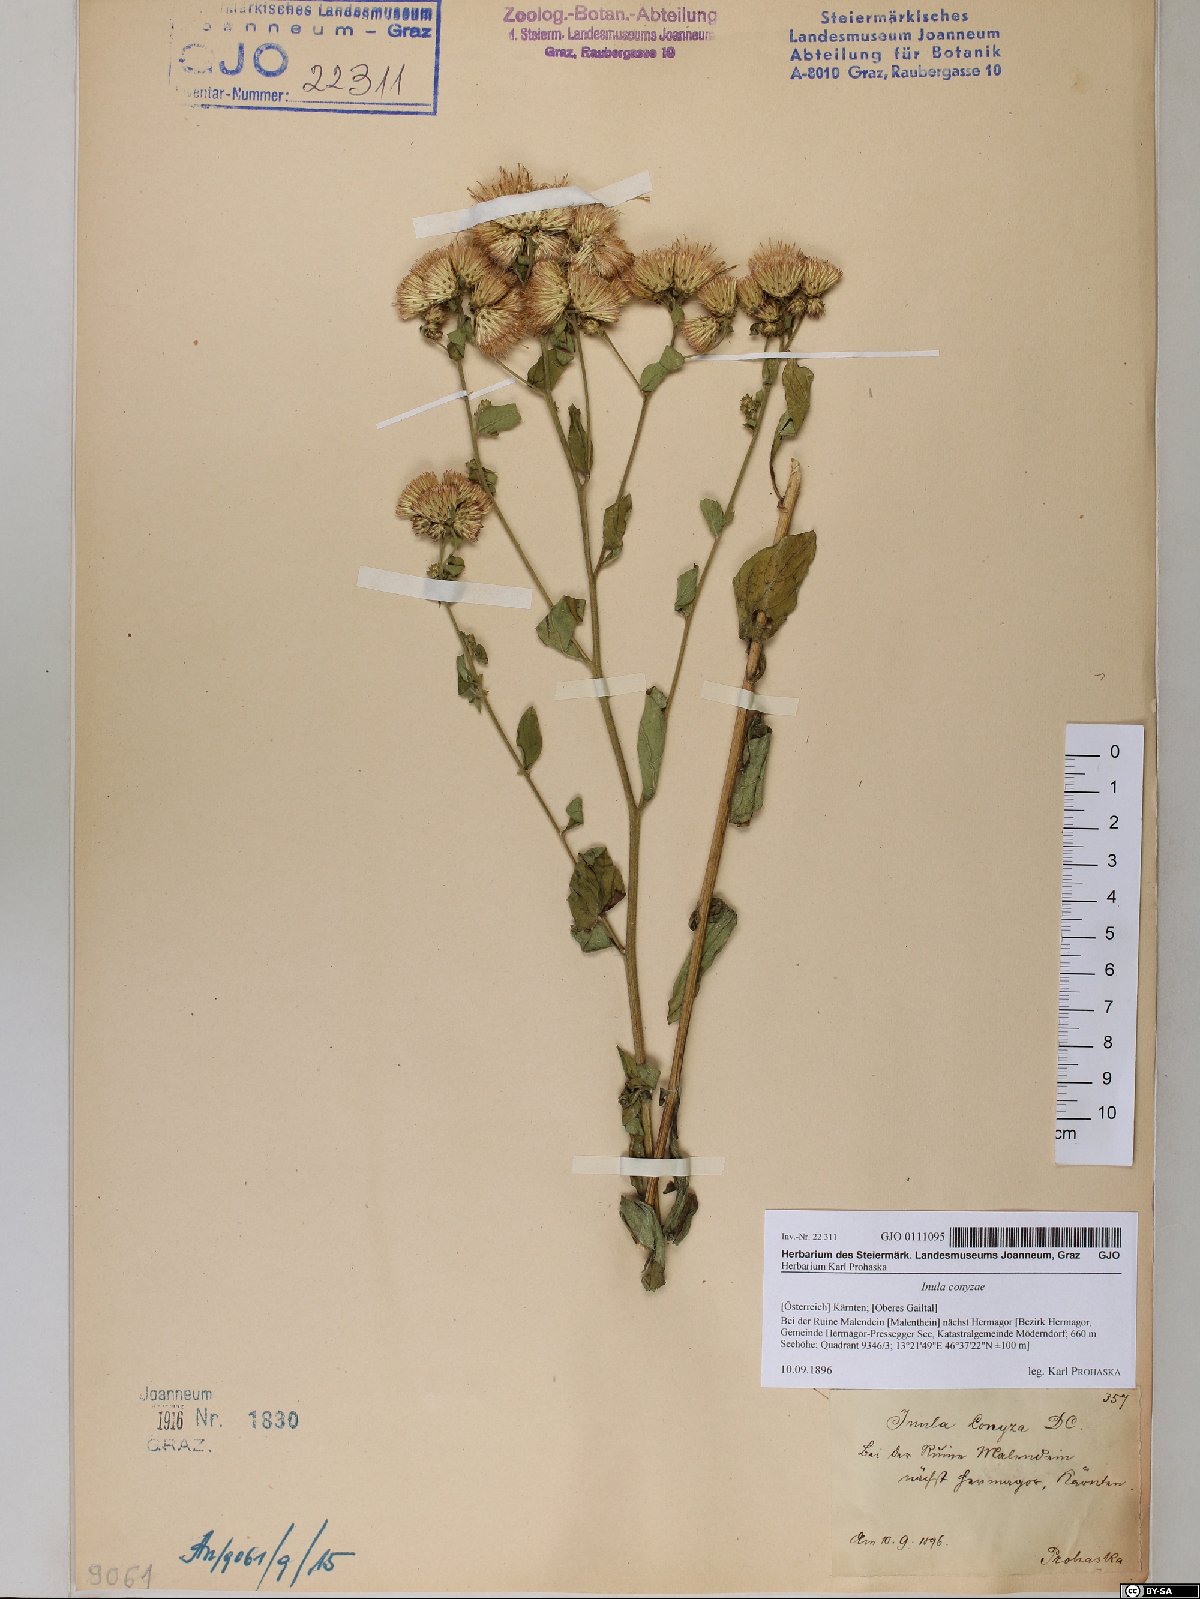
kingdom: Plantae
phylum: Tracheophyta
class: Magnoliopsida
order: Asterales
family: Asteraceae
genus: Pentanema
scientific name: Pentanema squarrosum
